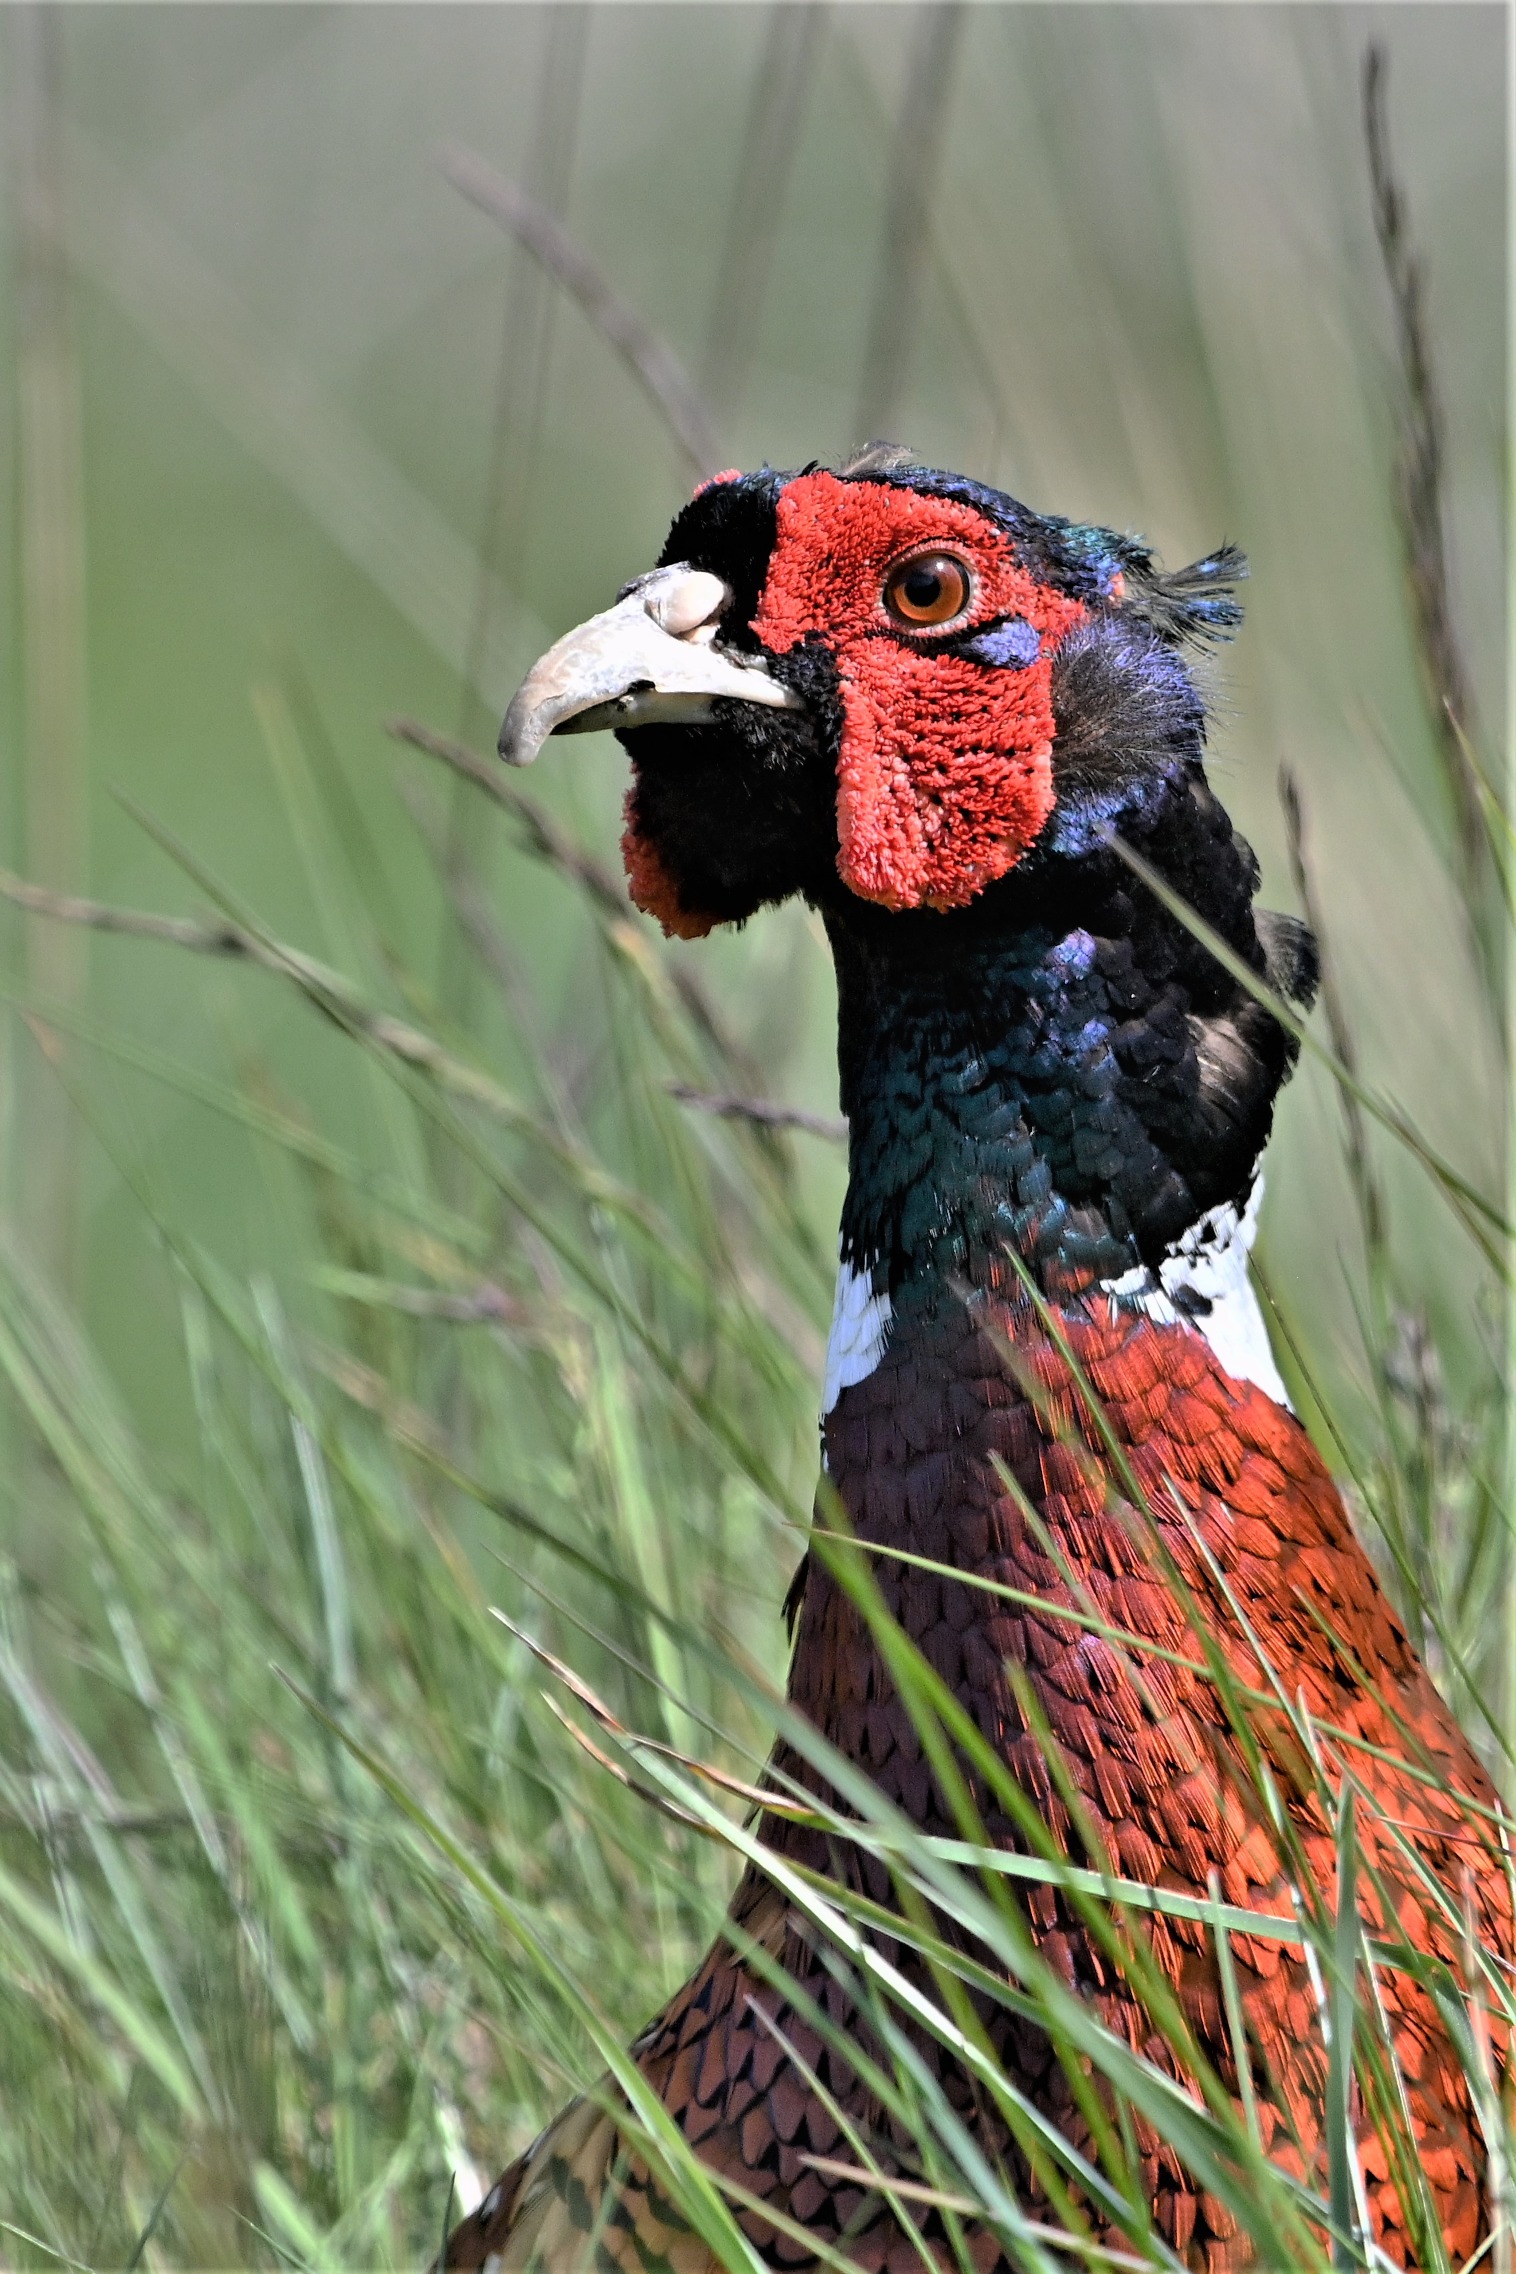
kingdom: Animalia
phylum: Chordata
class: Aves
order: Galliformes
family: Phasianidae
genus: Phasianus
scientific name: Phasianus colchicus
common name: Fasan
